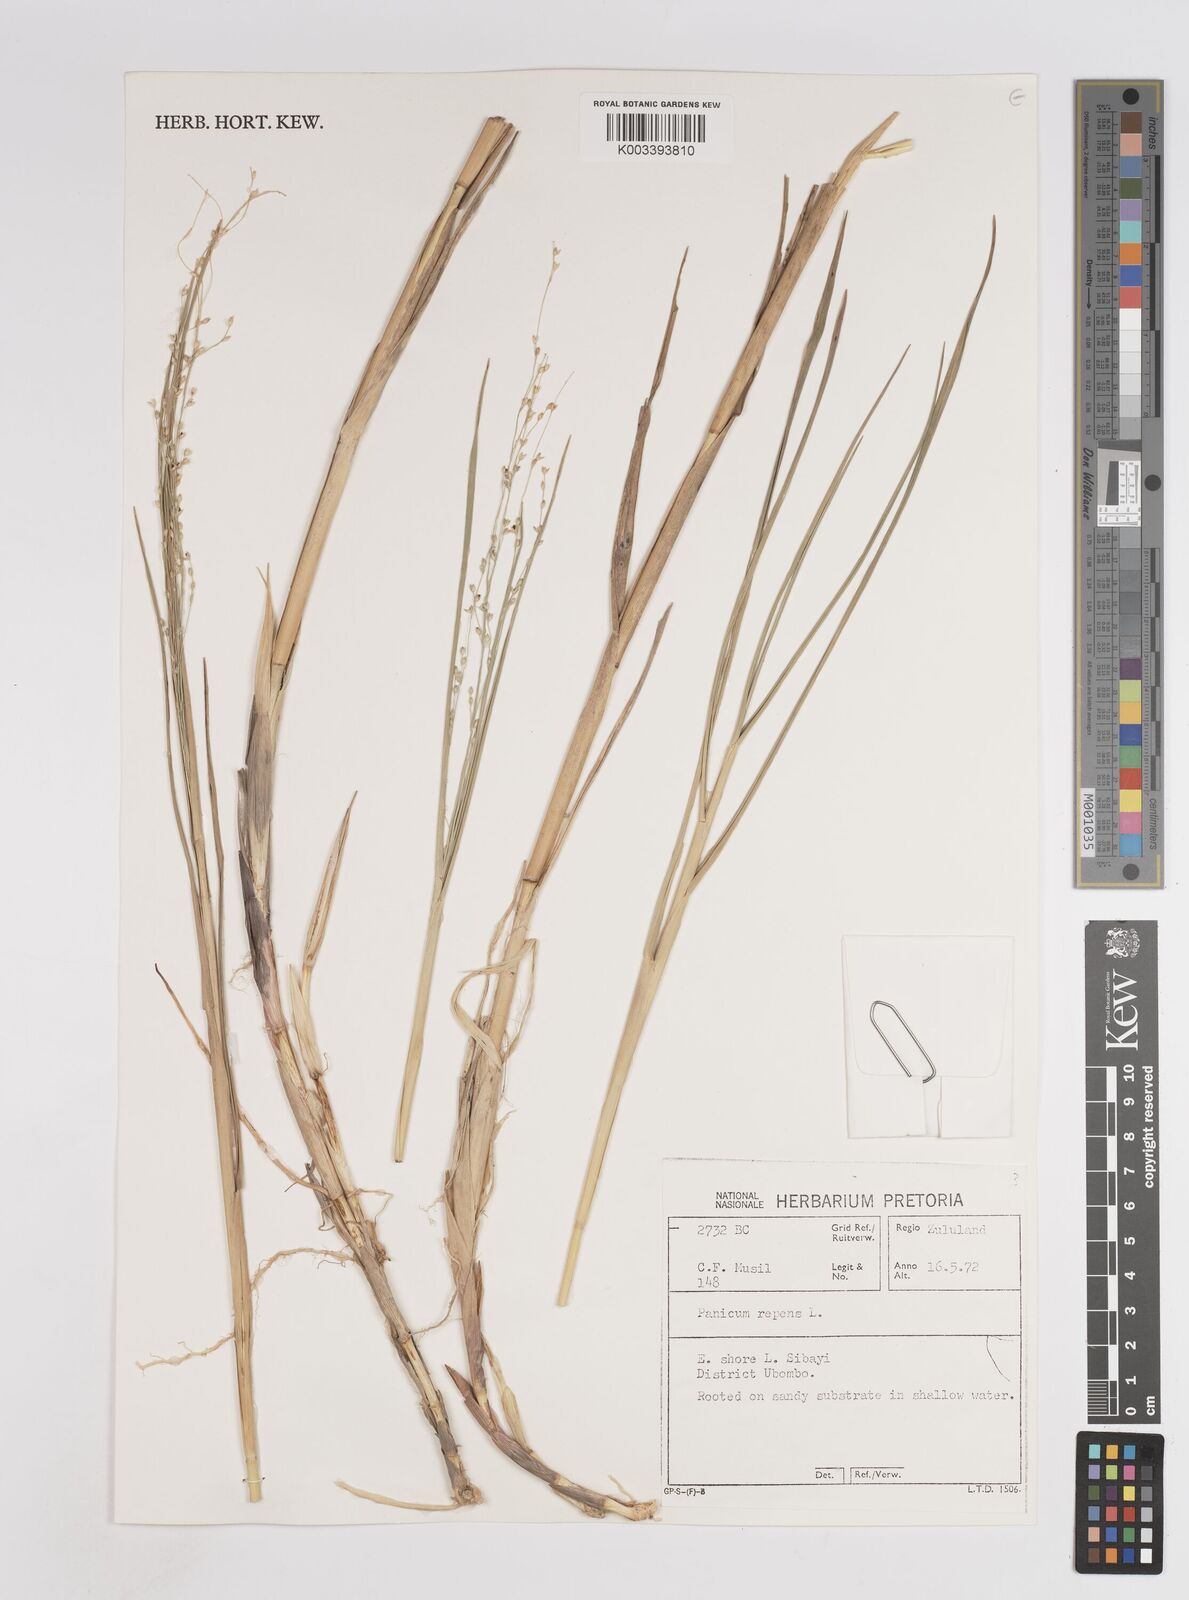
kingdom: Plantae
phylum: Tracheophyta
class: Liliopsida
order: Poales
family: Poaceae
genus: Panicum
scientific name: Panicum repens
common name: Torpedo grass
